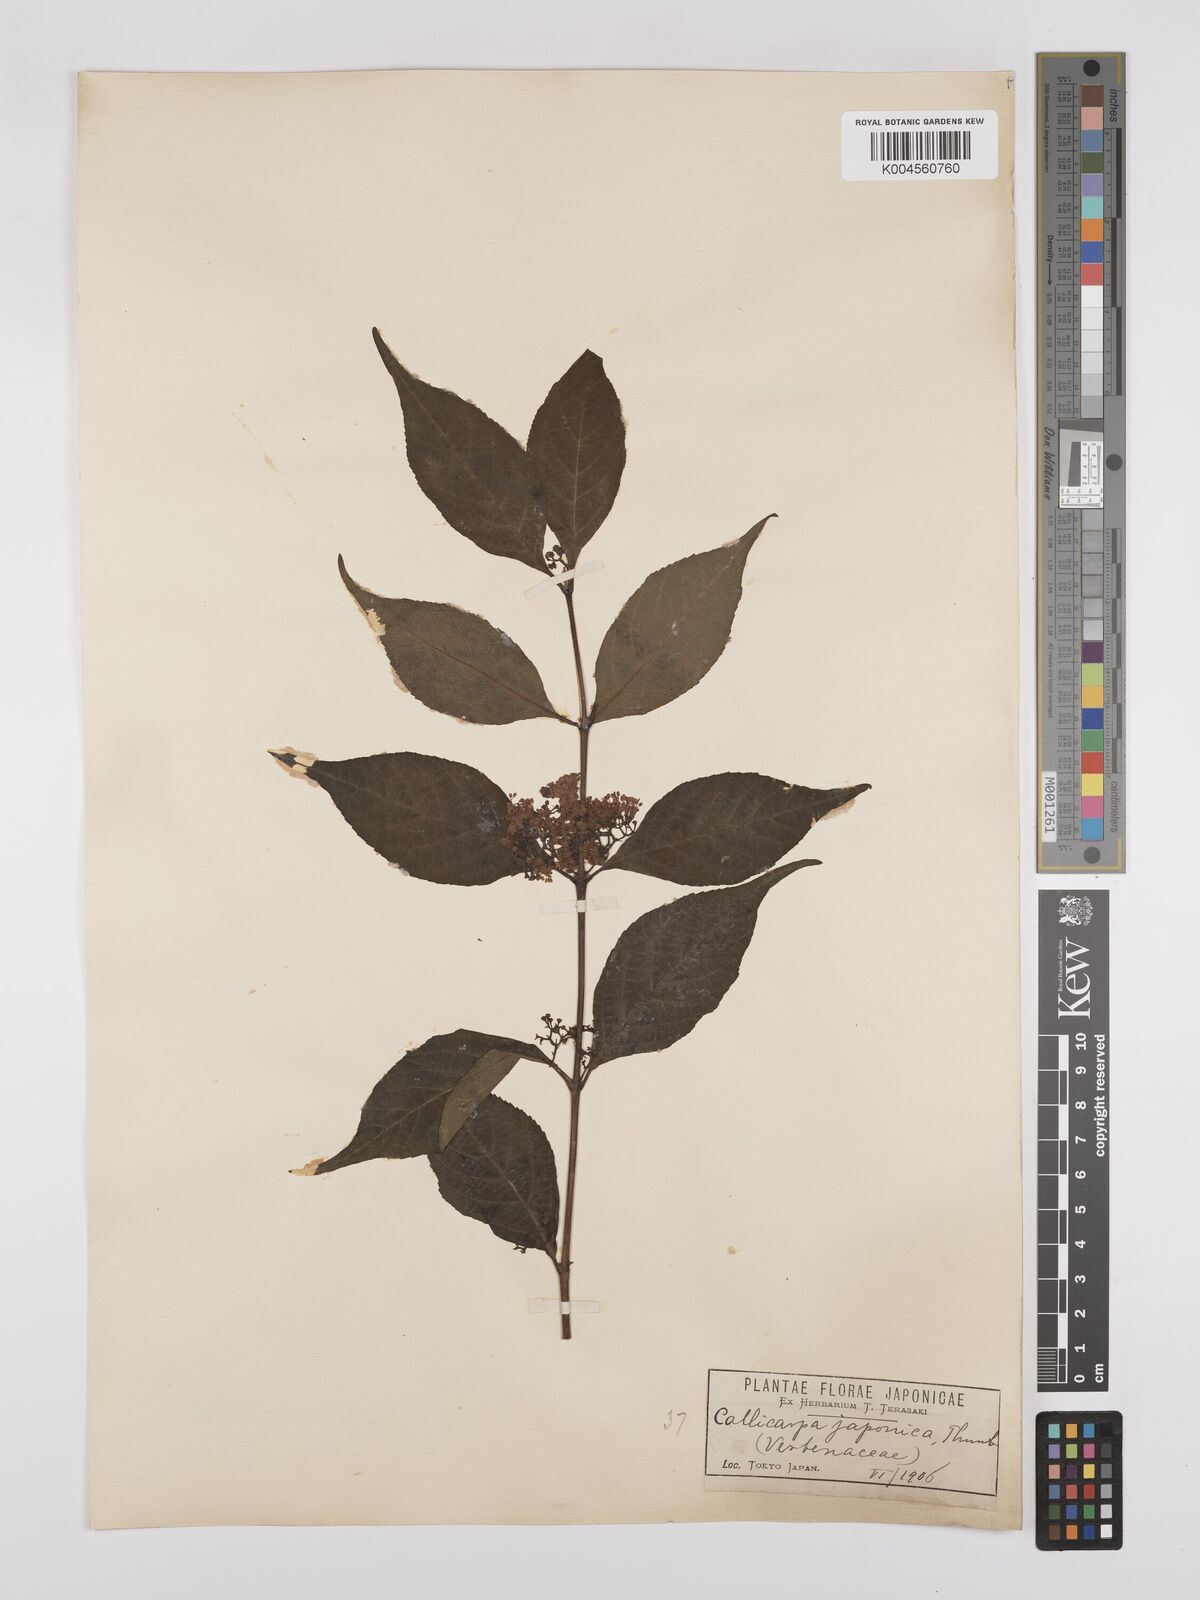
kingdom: Plantae
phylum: Tracheophyta
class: Magnoliopsida
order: Lamiales
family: Lamiaceae
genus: Callicarpa
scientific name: Callicarpa japonica
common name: Japanese beauty-berry
